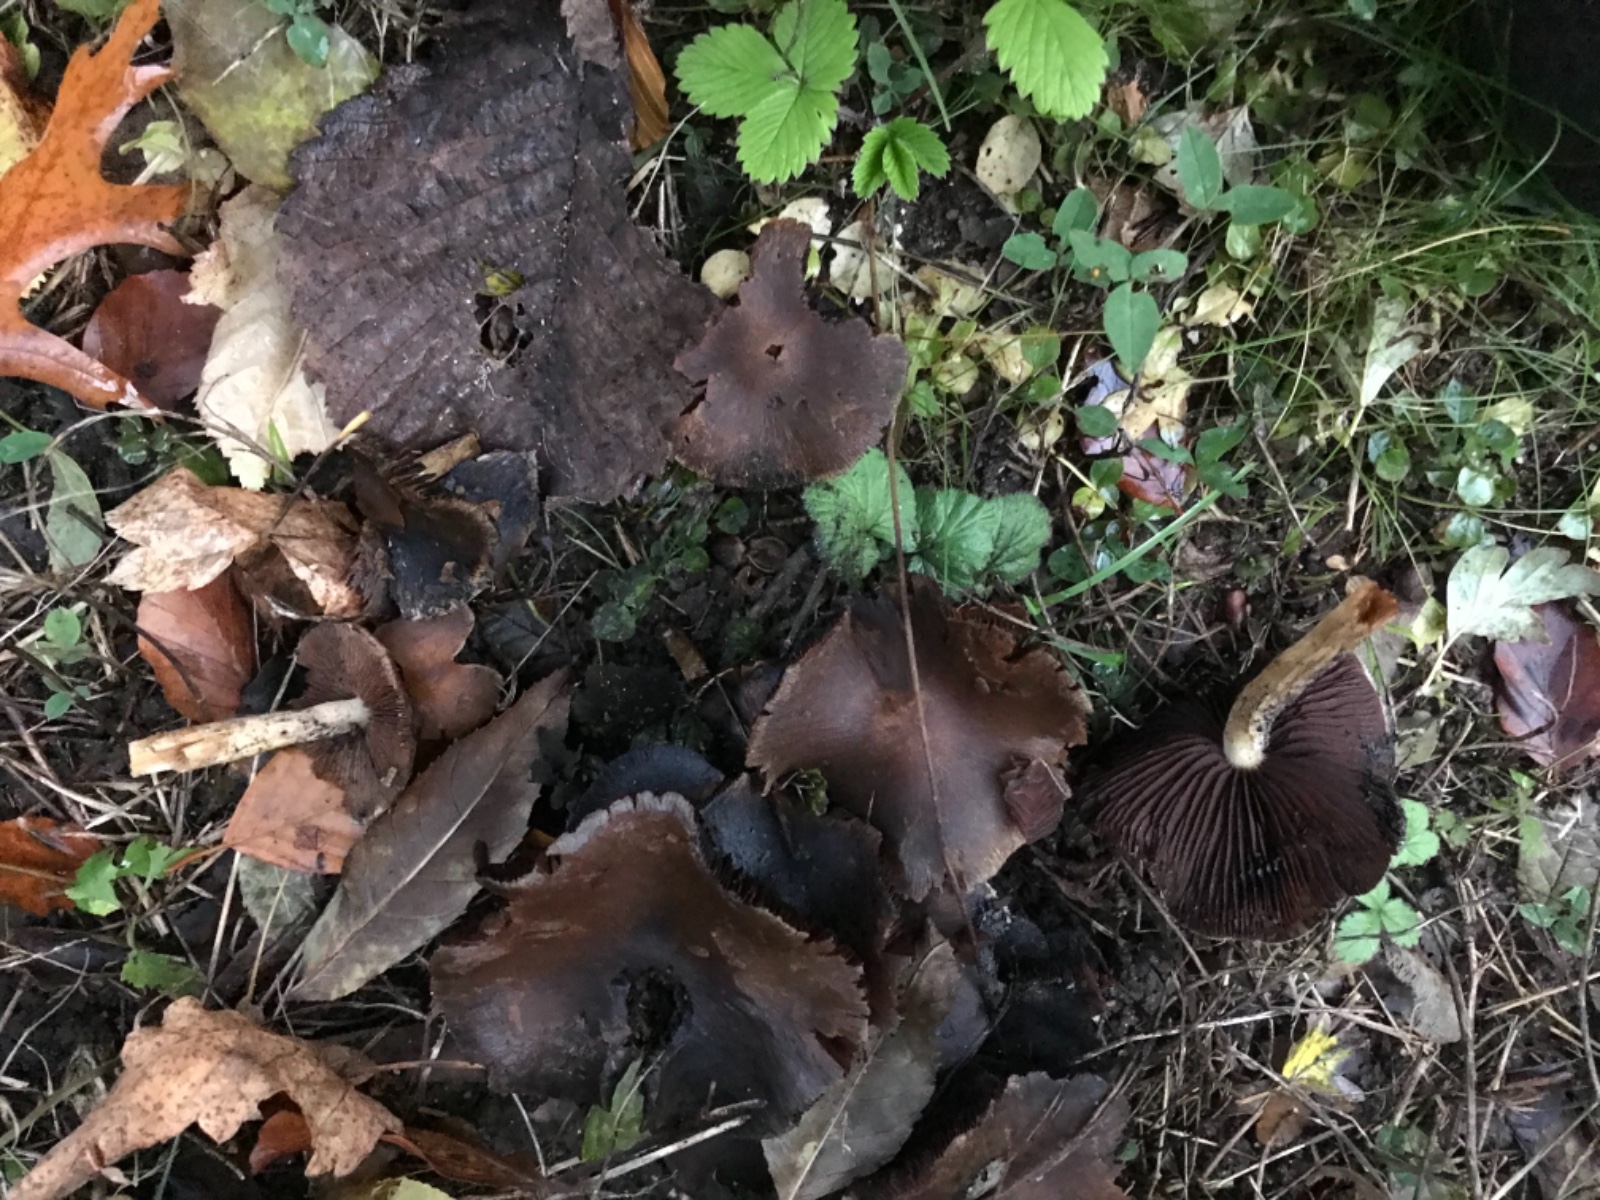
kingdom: Fungi
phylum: Basidiomycota
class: Agaricomycetes
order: Agaricales
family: Psathyrellaceae
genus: Psathyrella
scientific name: Psathyrella
